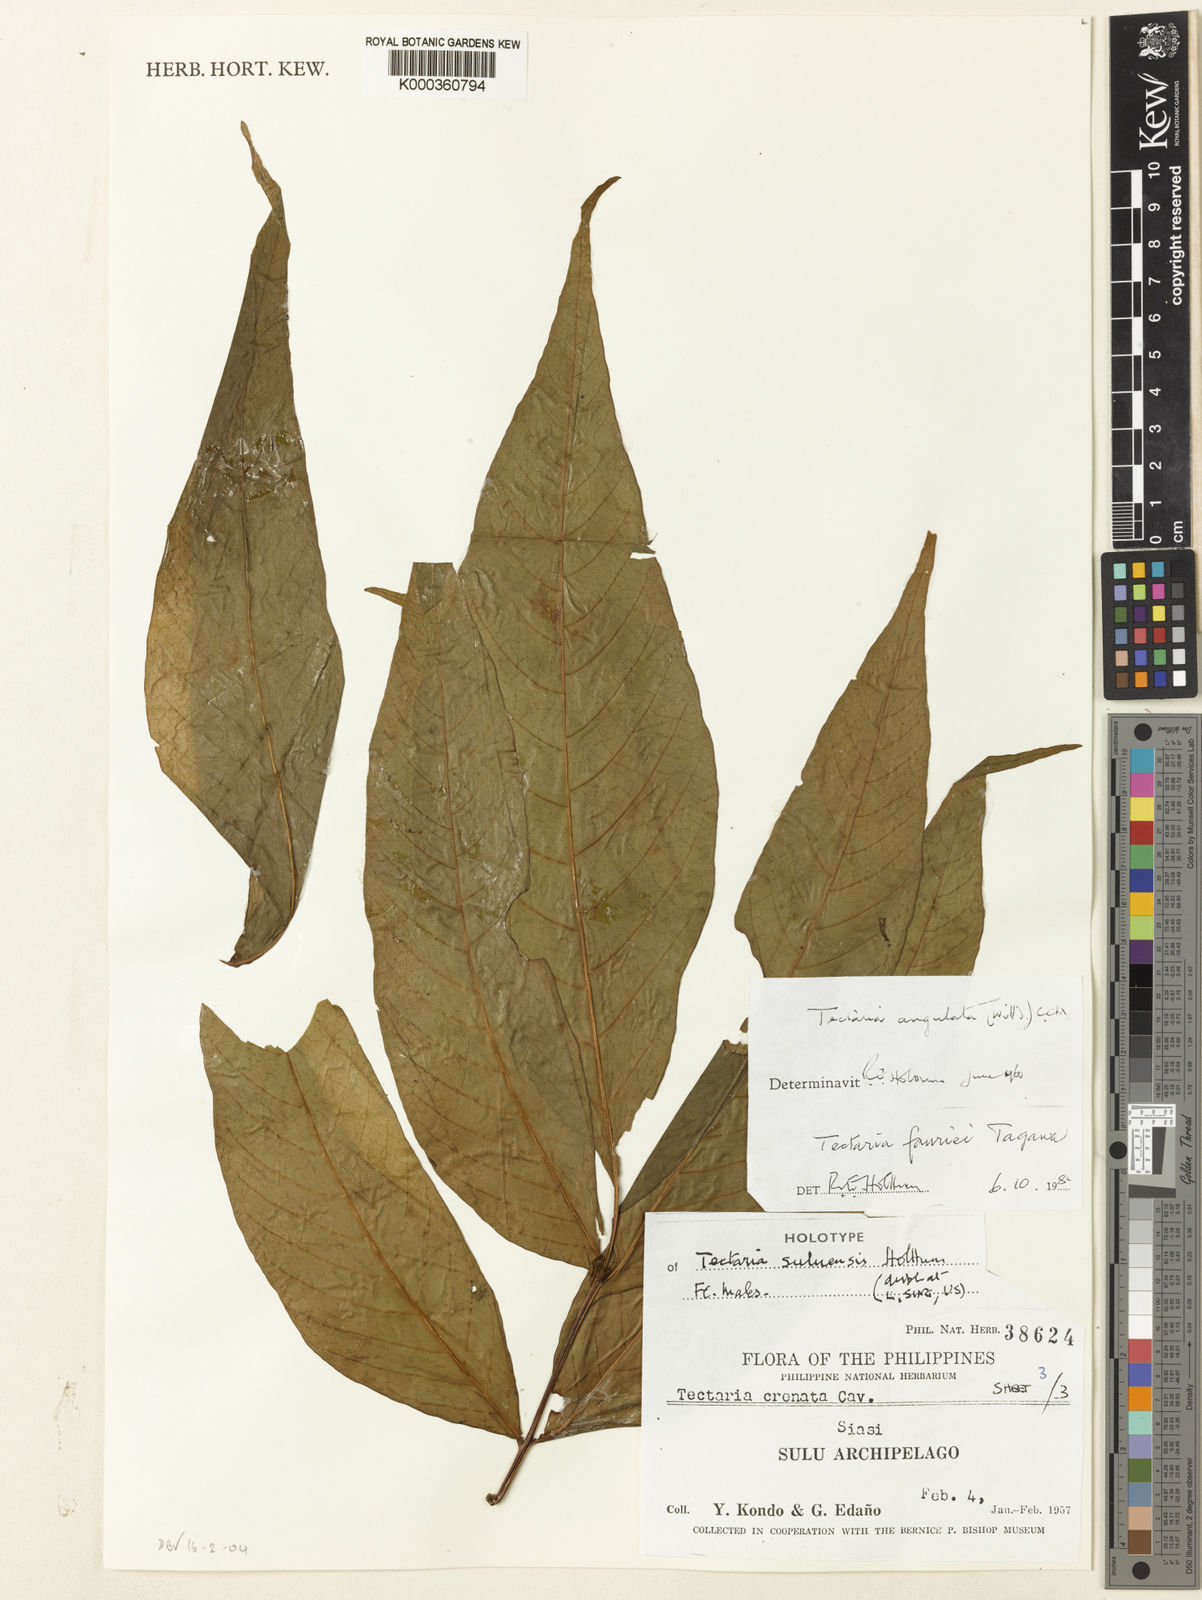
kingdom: Plantae
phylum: Tracheophyta
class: Polypodiopsida
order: Polypodiales
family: Tectariaceae
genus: Tectaria
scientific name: Tectaria suluensis
